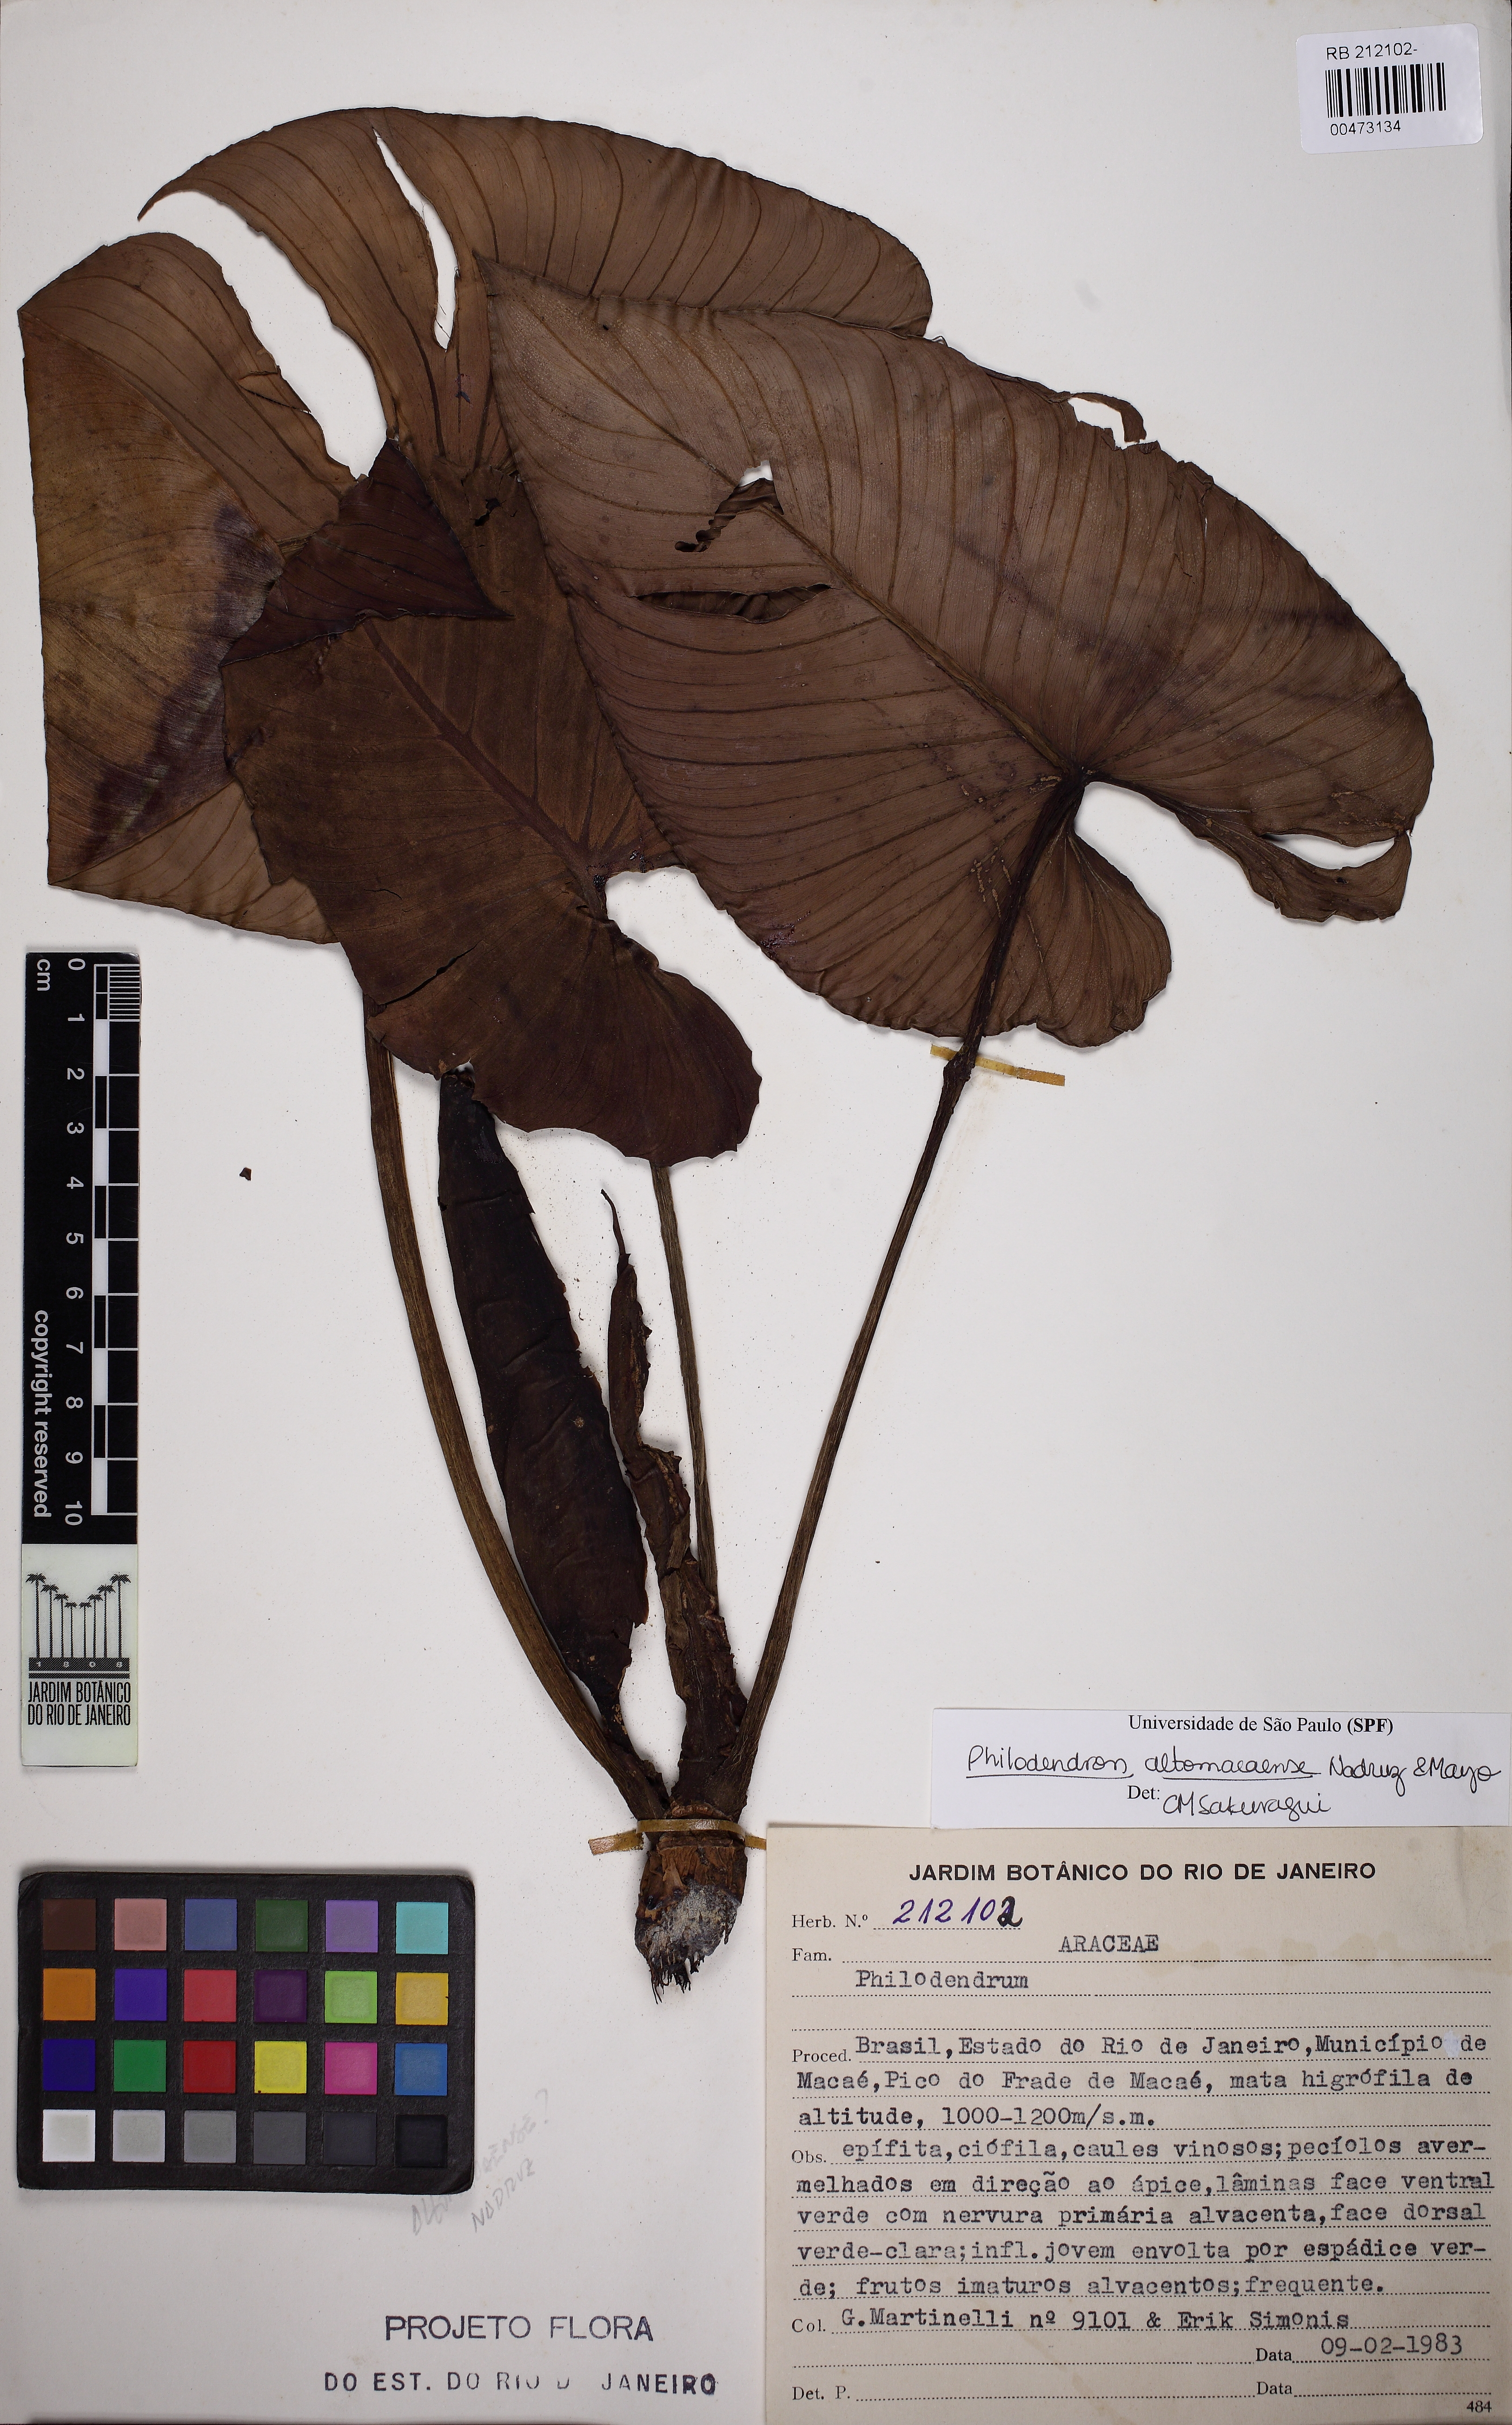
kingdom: Plantae
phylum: Tracheophyta
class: Liliopsida
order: Alismatales
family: Araceae
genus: Philodendron
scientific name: Philodendron altomacaense
